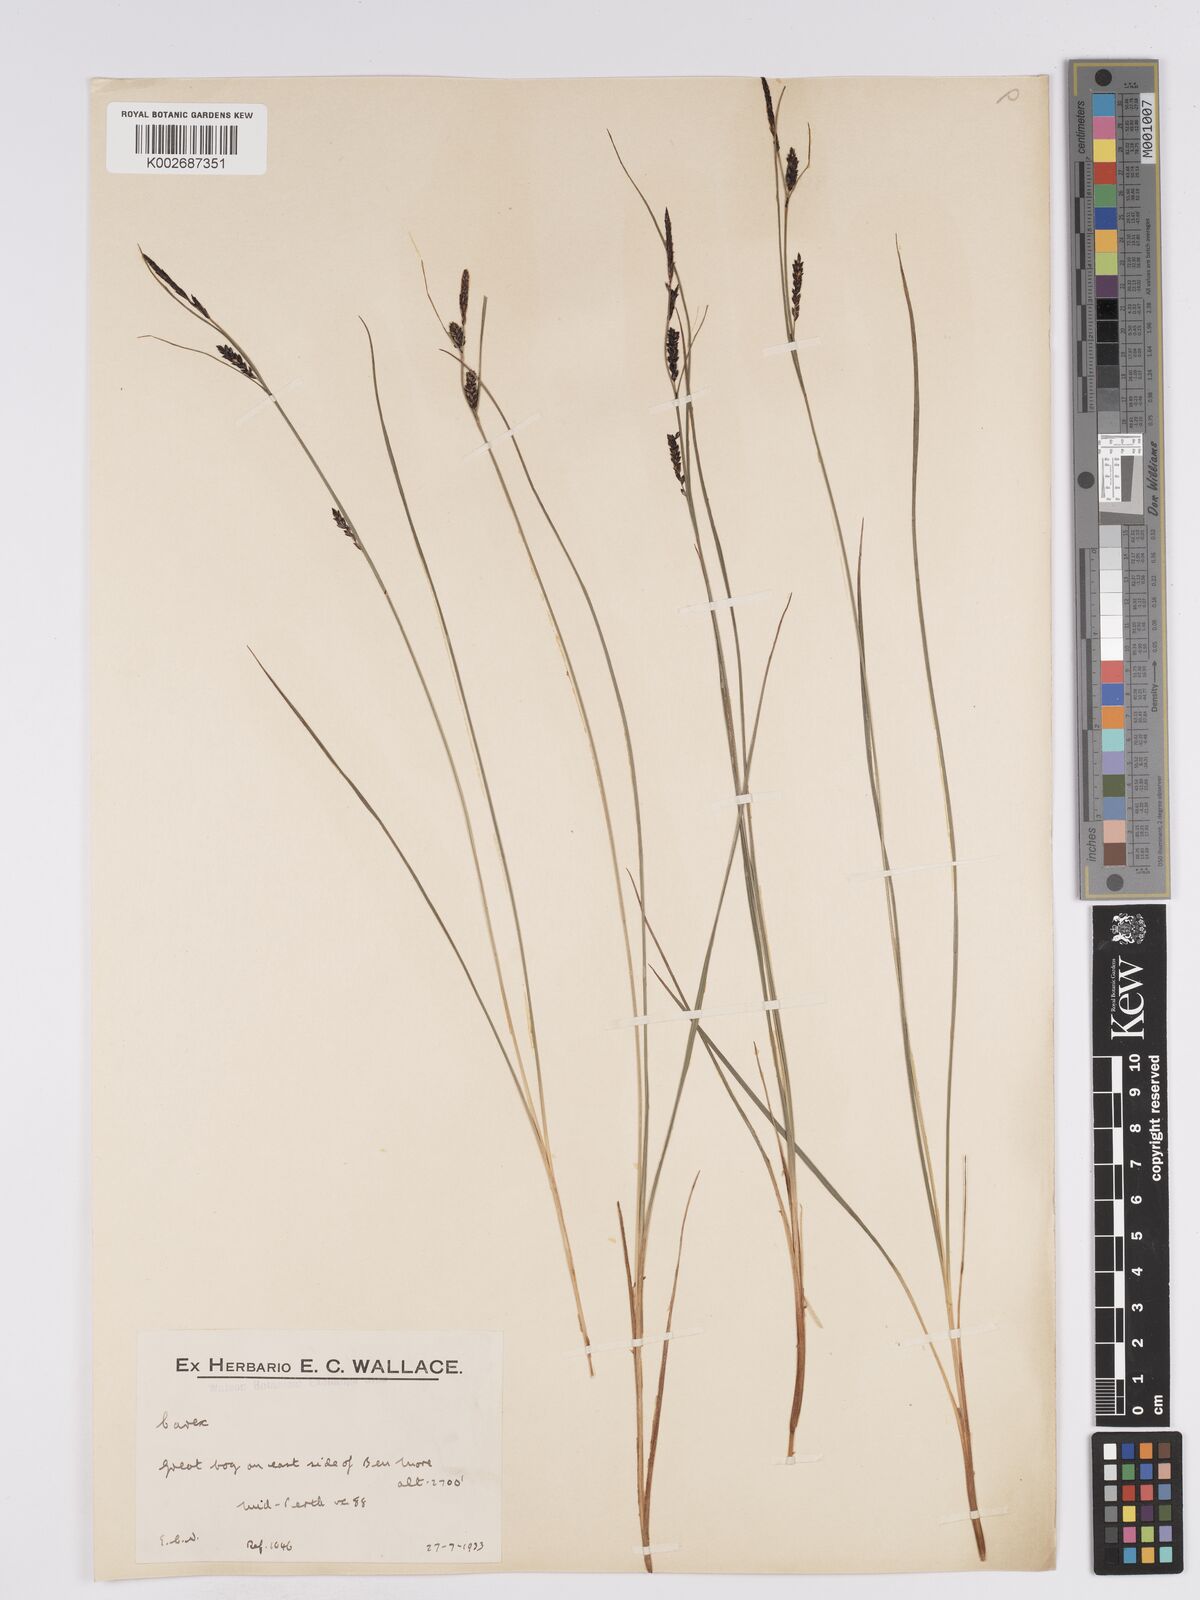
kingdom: Plantae
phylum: Tracheophyta
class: Liliopsida
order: Poales
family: Cyperaceae
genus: Carex
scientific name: Carex nigra
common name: Common sedge
